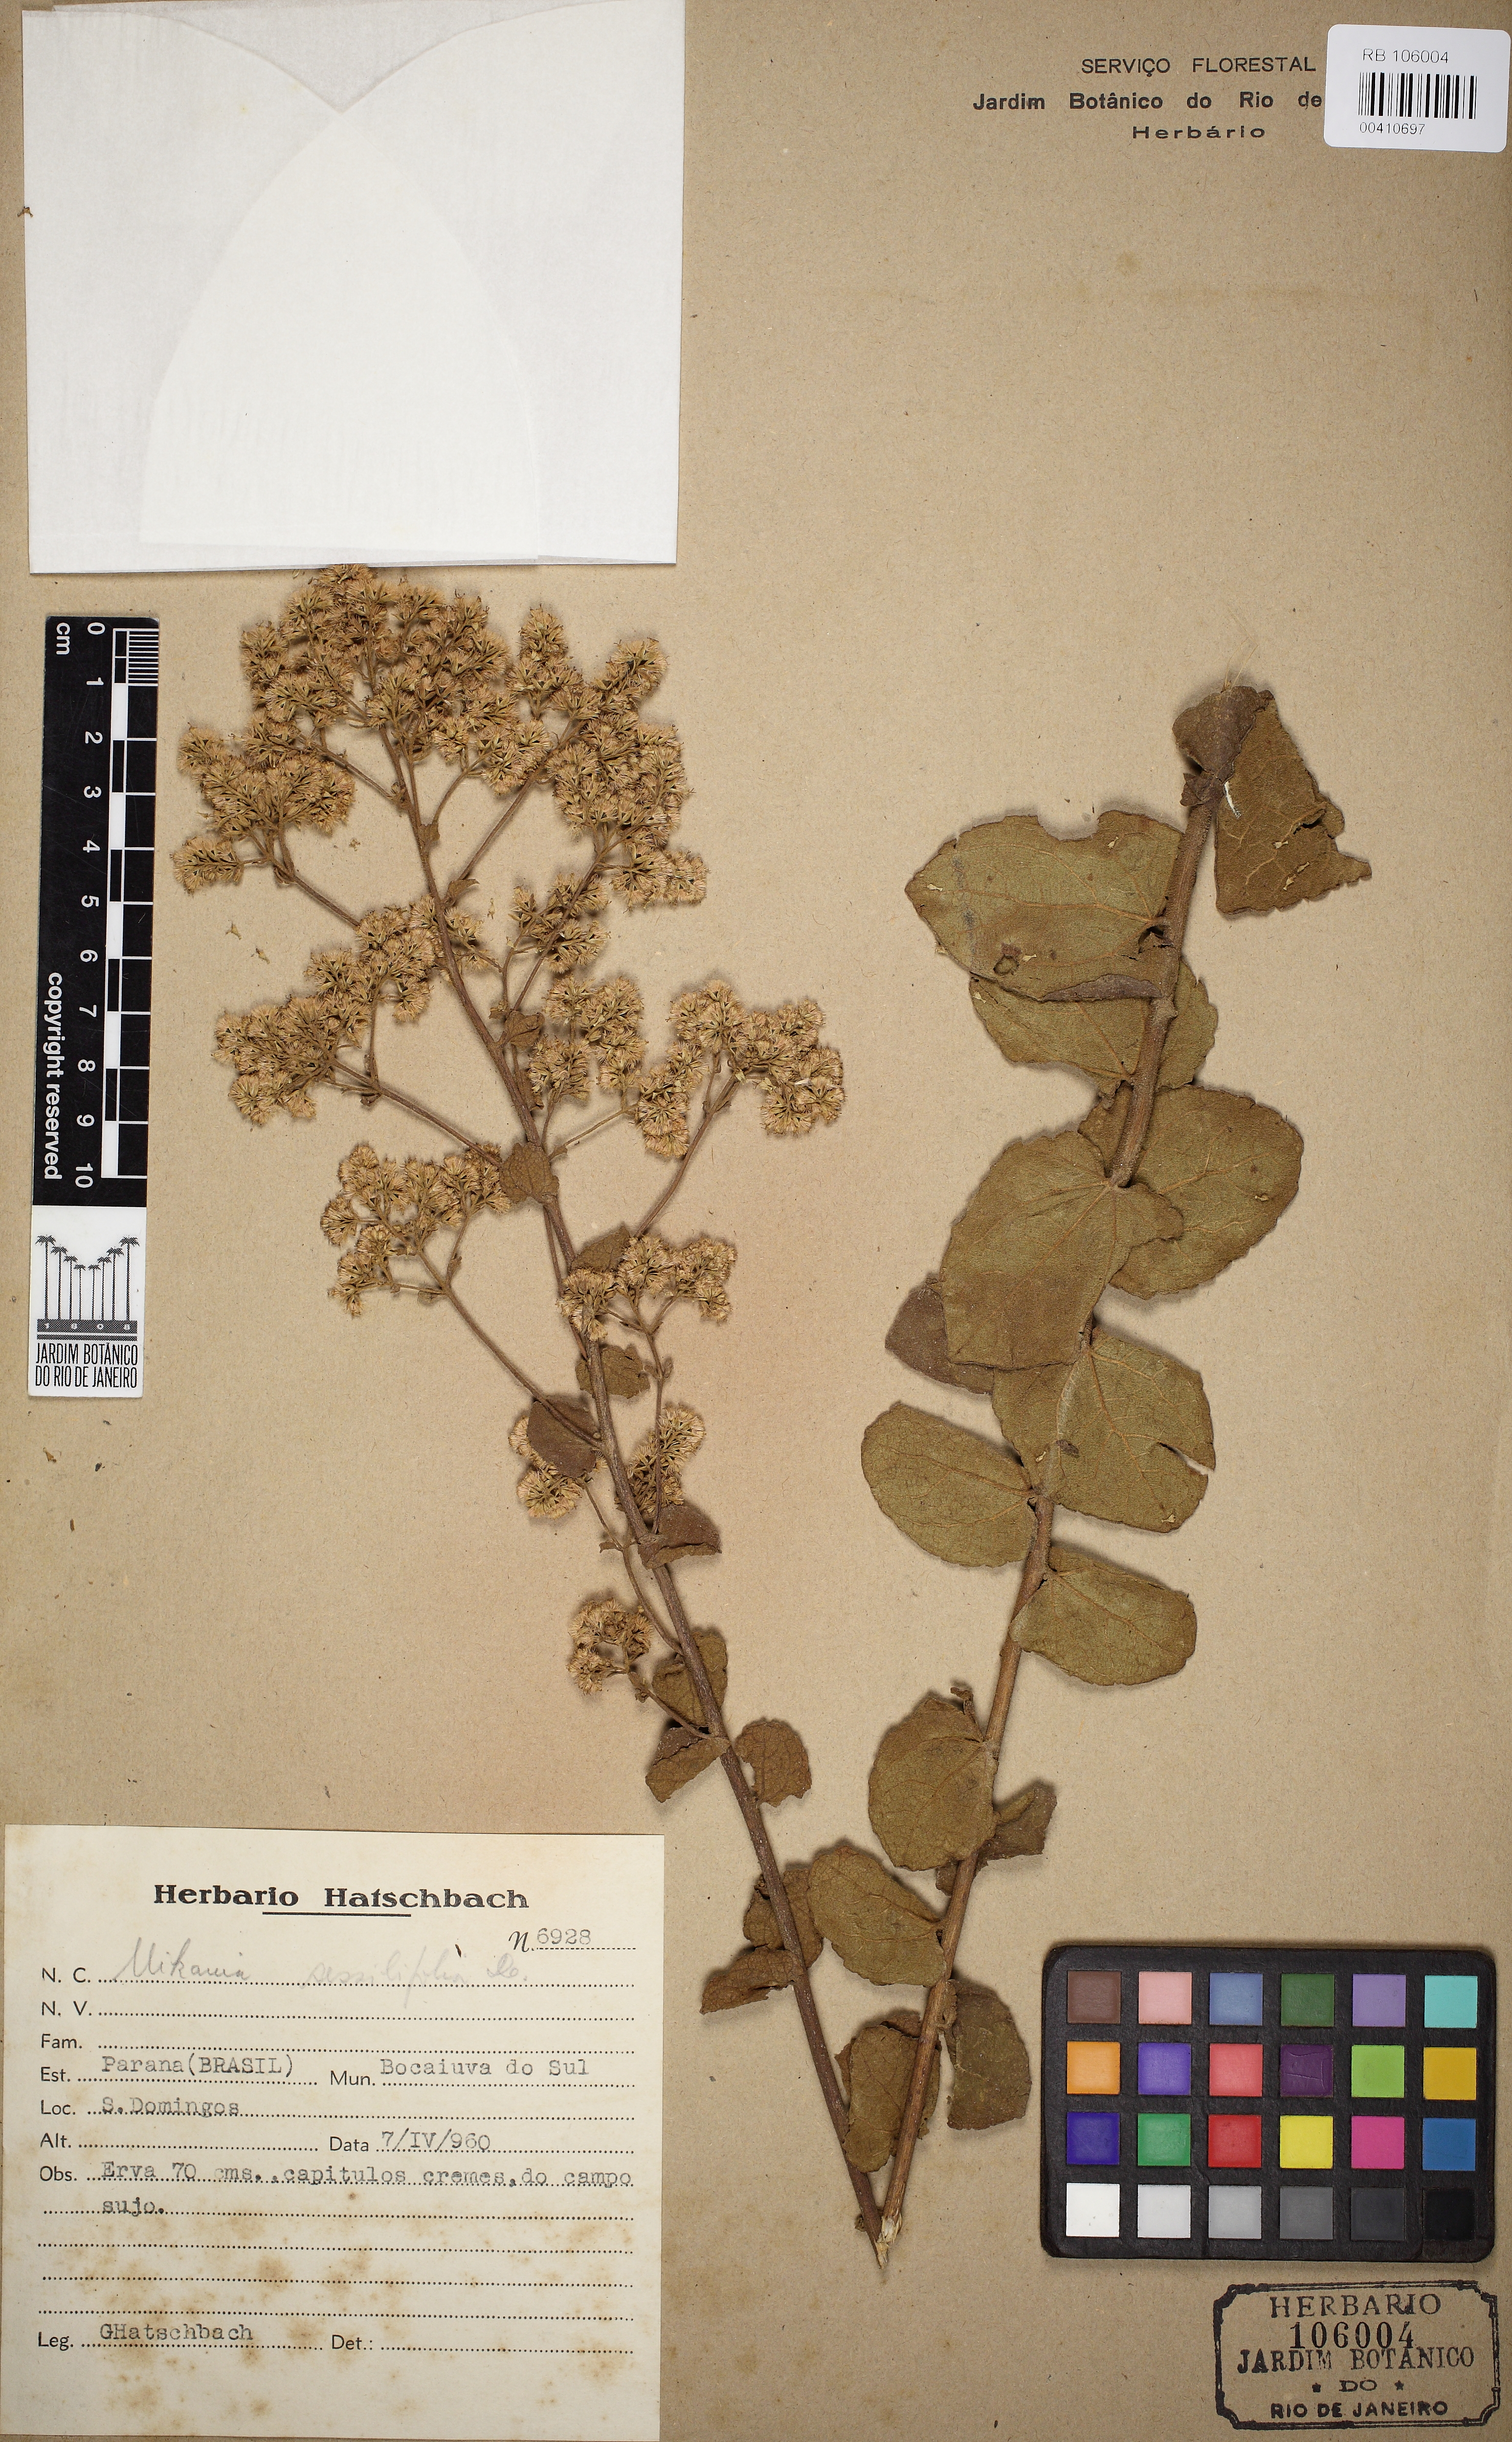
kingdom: Plantae
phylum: Tracheophyta
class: Magnoliopsida
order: Asterales
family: Asteraceae
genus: Mikania
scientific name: Mikania sessilifolia
